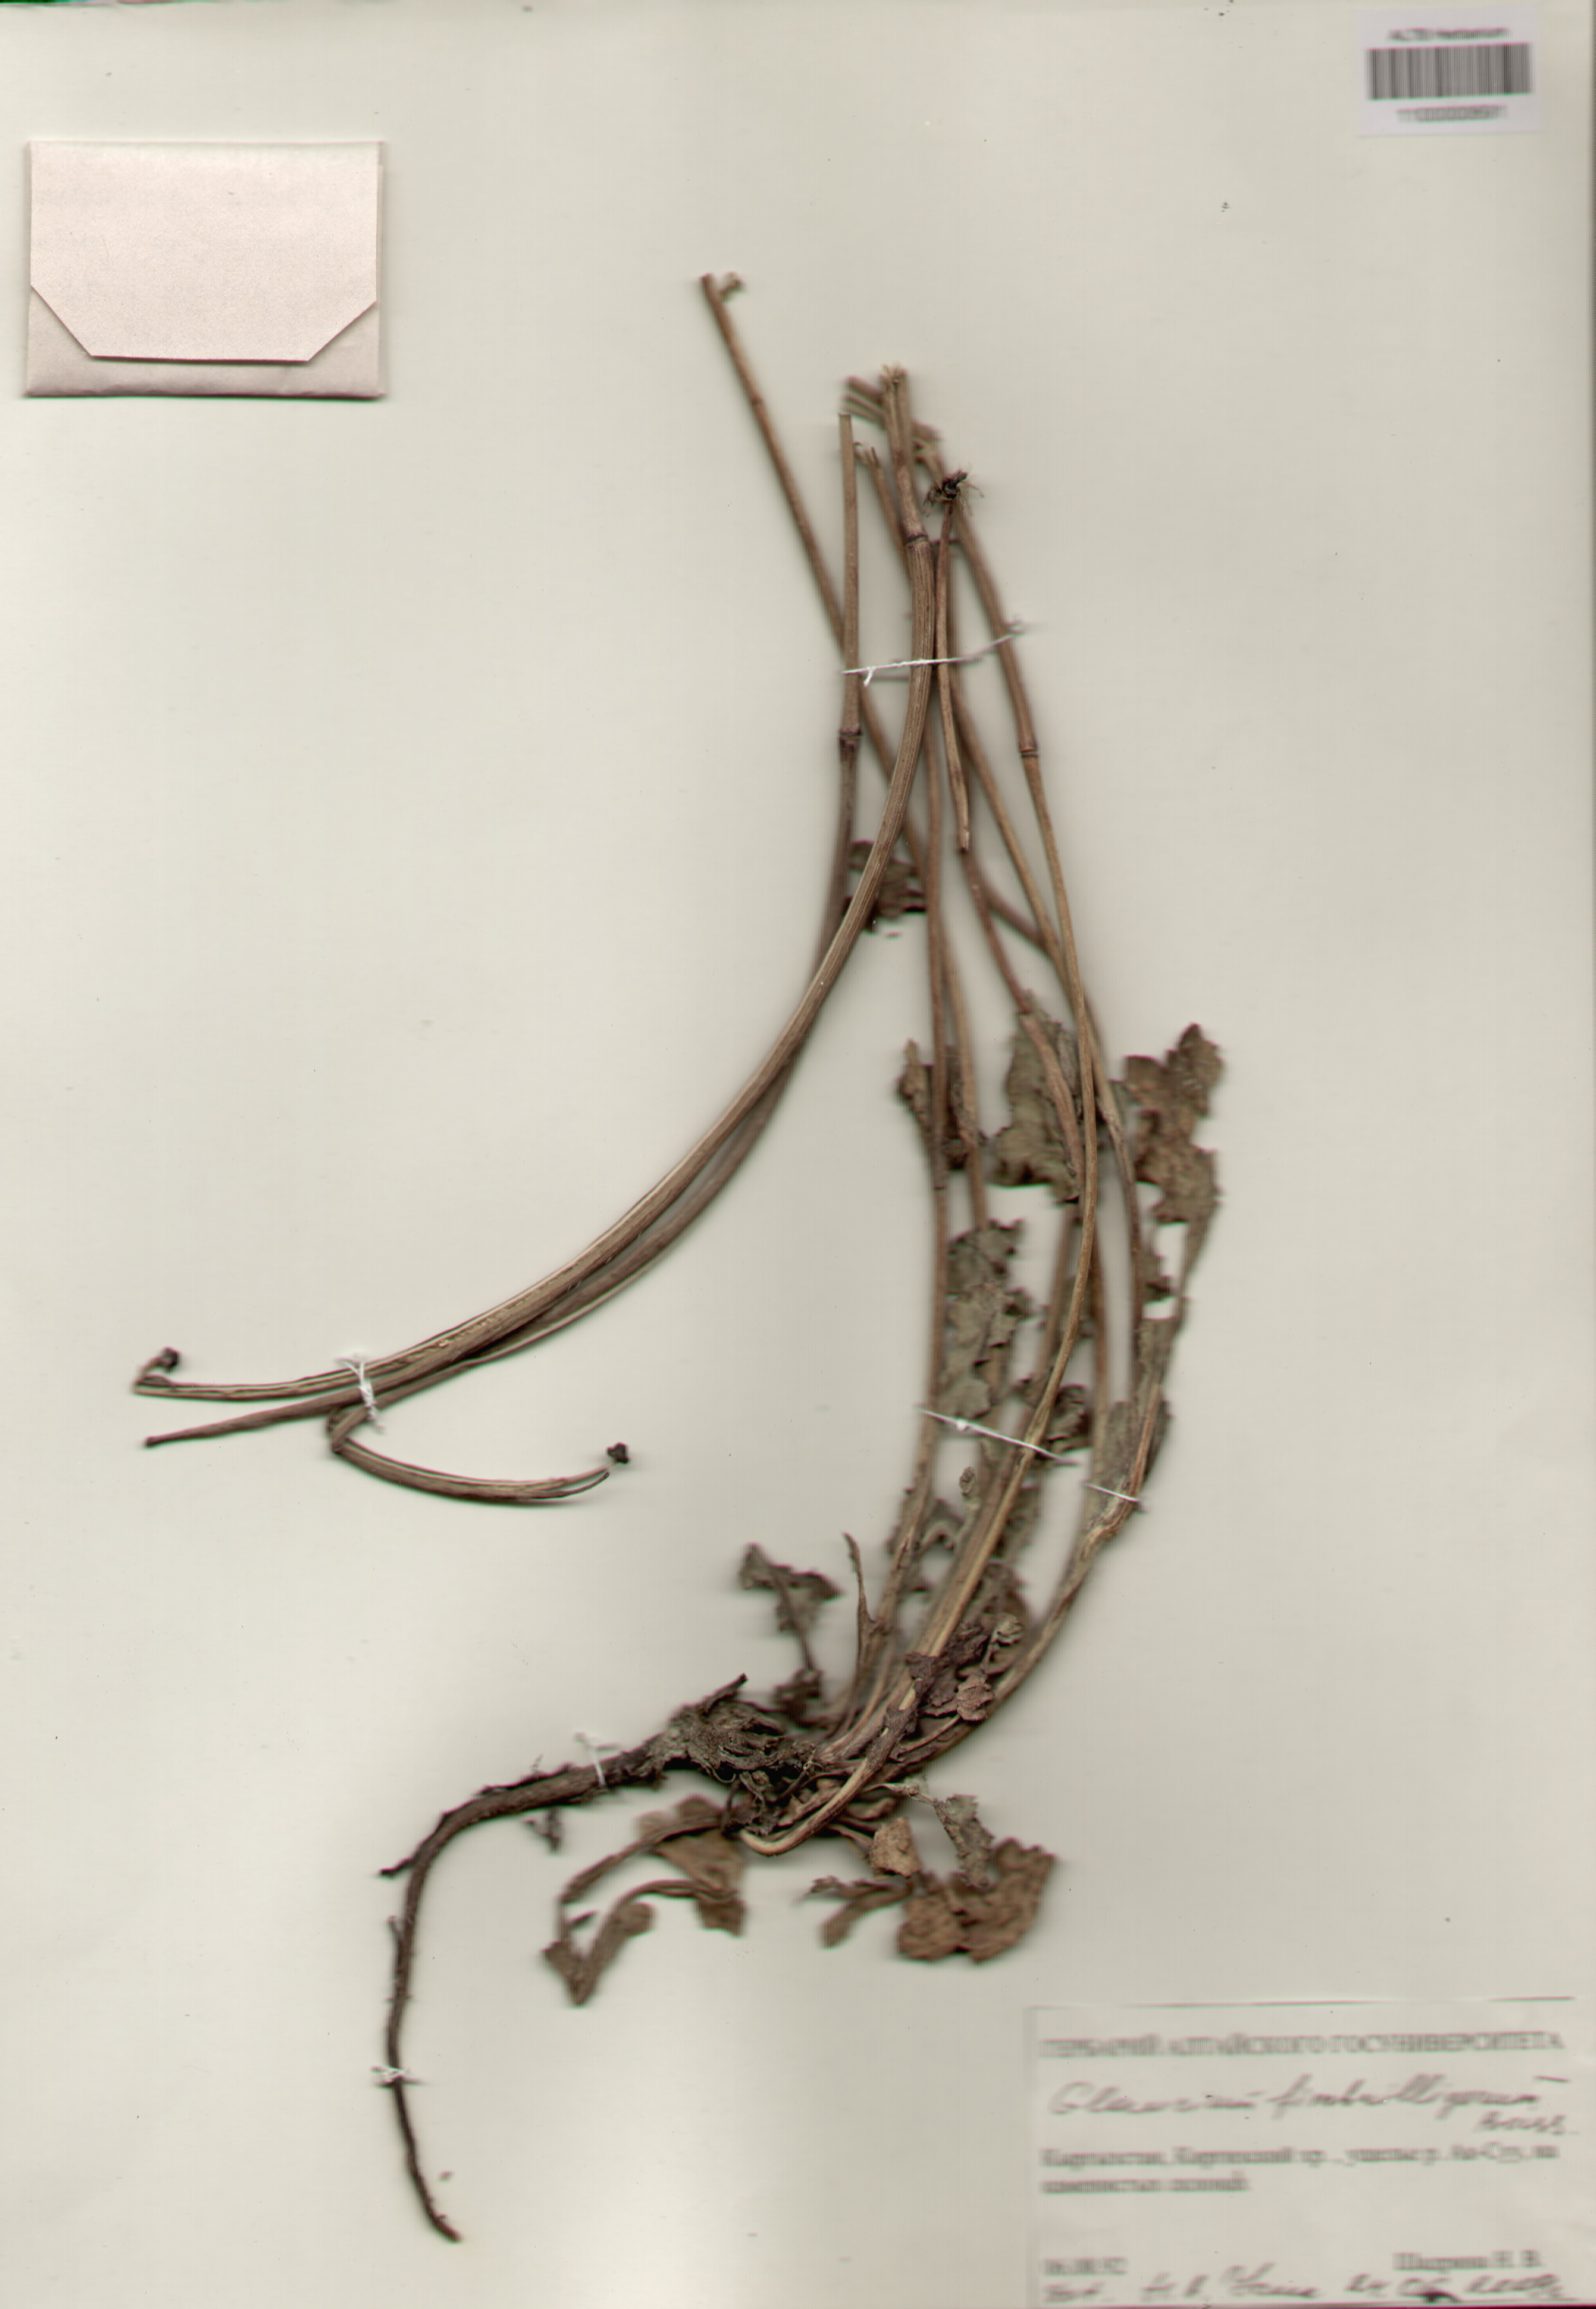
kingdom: Plantae
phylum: Tracheophyta
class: Magnoliopsida
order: Ranunculales
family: Papaveraceae
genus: Glaucium
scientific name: Glaucium fimbrilligerum
